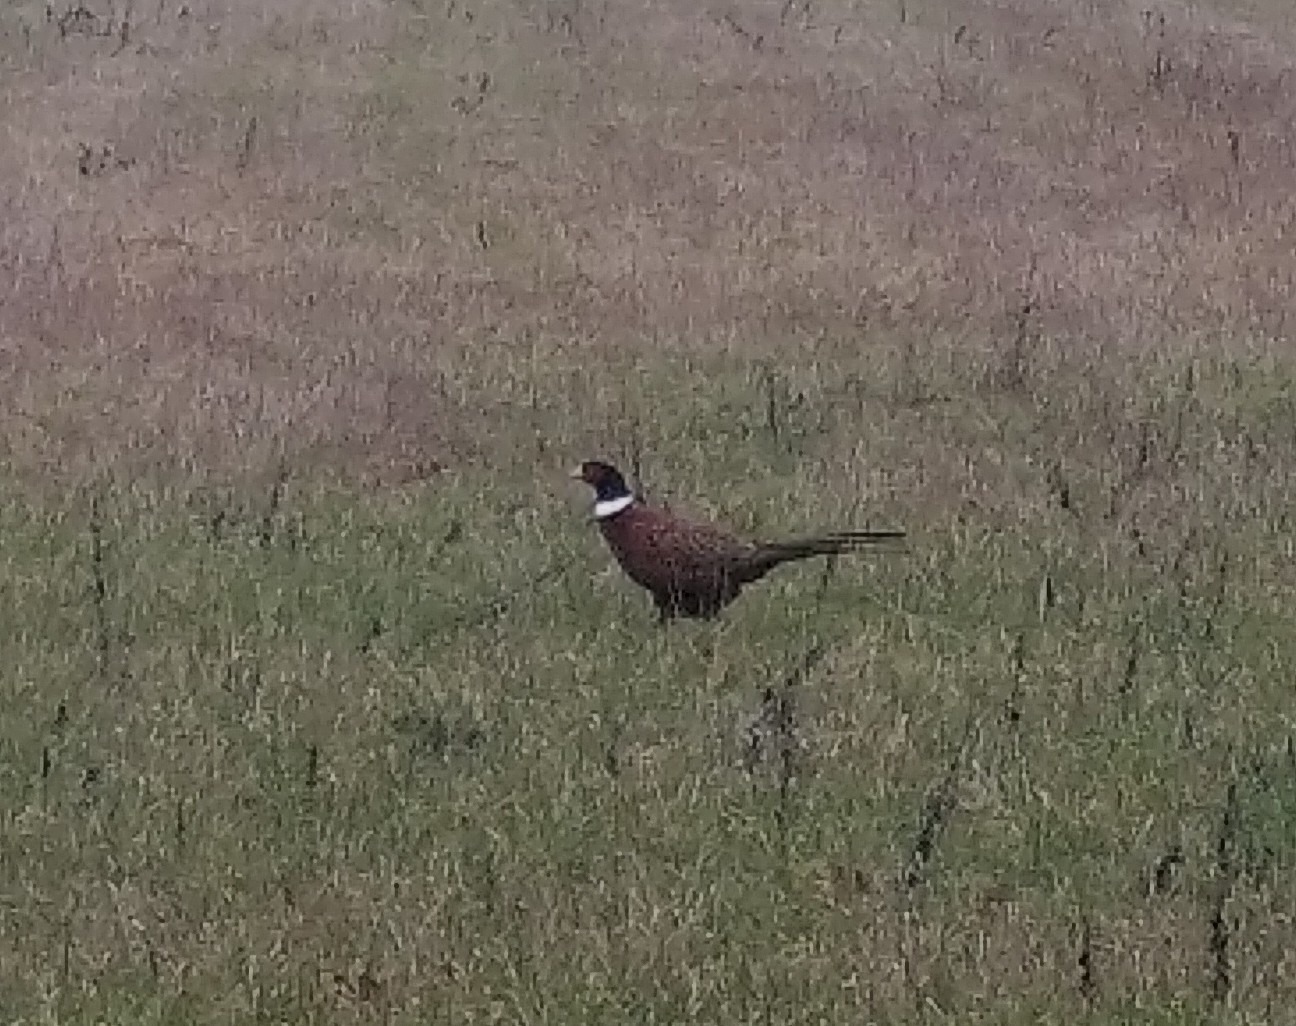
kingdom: Animalia
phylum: Chordata
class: Aves
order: Galliformes
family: Phasianidae
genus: Phasianus
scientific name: Phasianus colchicus
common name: Fasan
